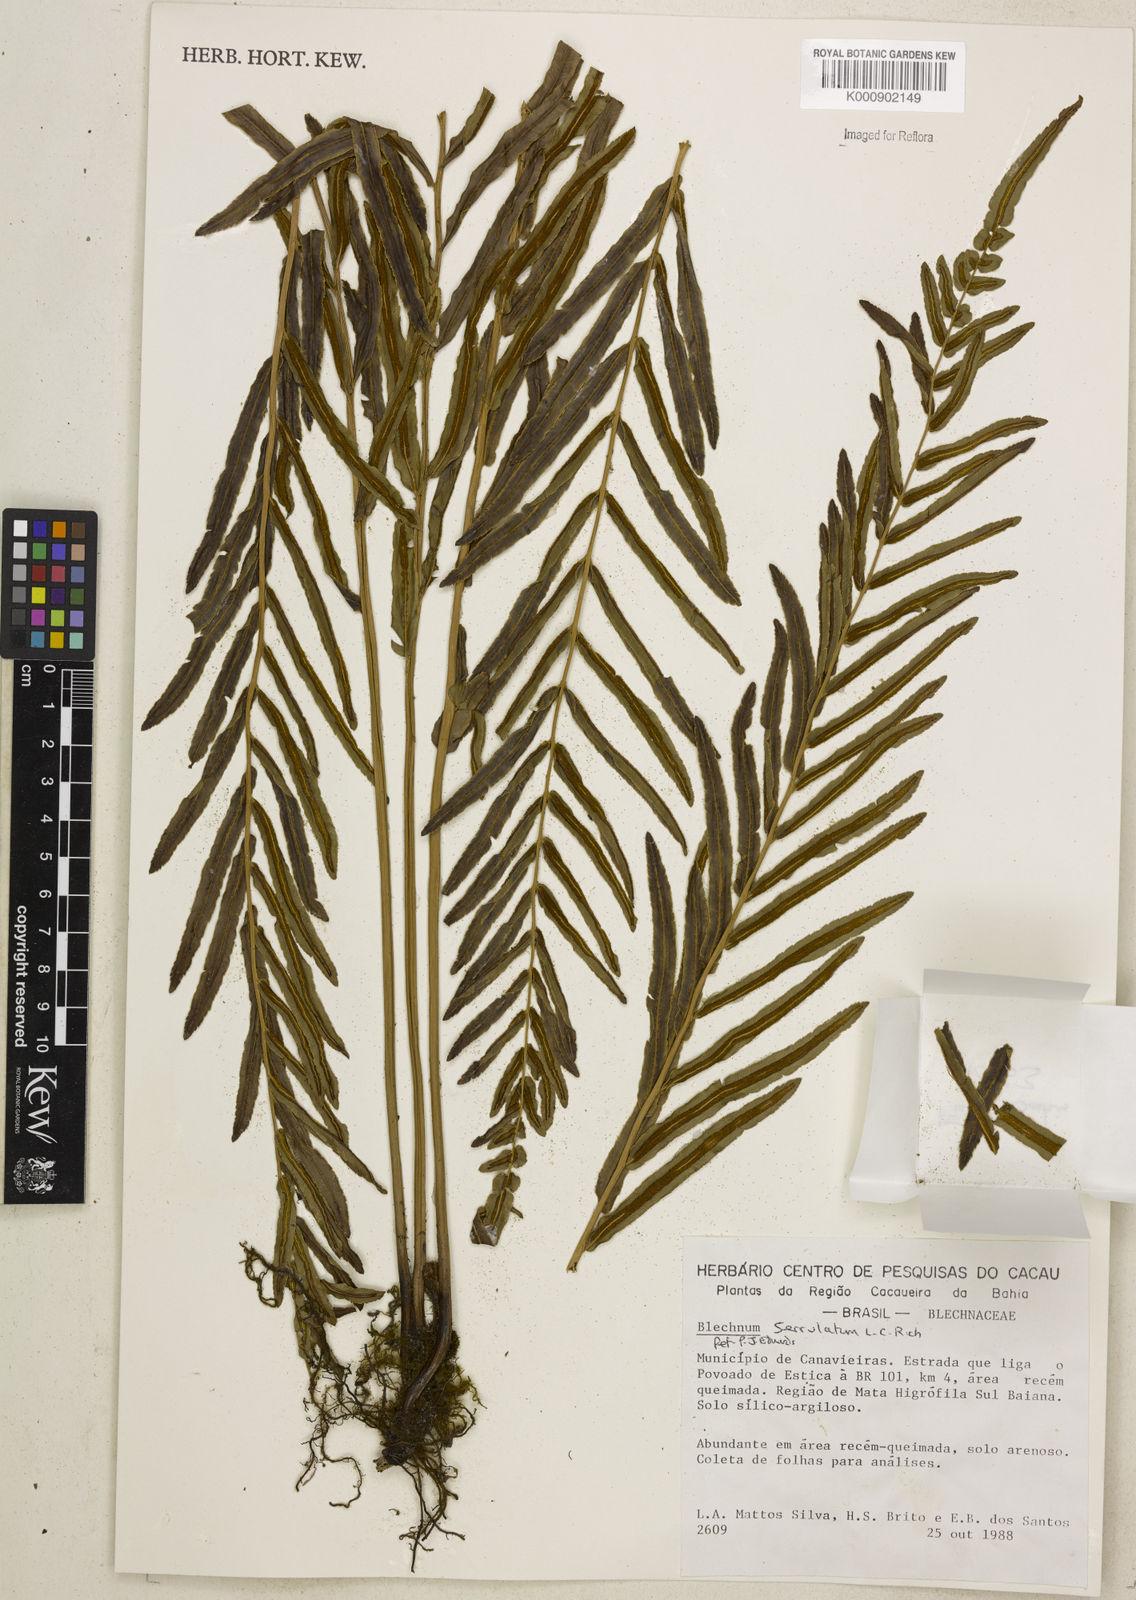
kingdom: Plantae
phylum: Tracheophyta
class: Polypodiopsida
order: Polypodiales
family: Blechnaceae
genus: Telmatoblechnum
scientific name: Telmatoblechnum serrulatum
